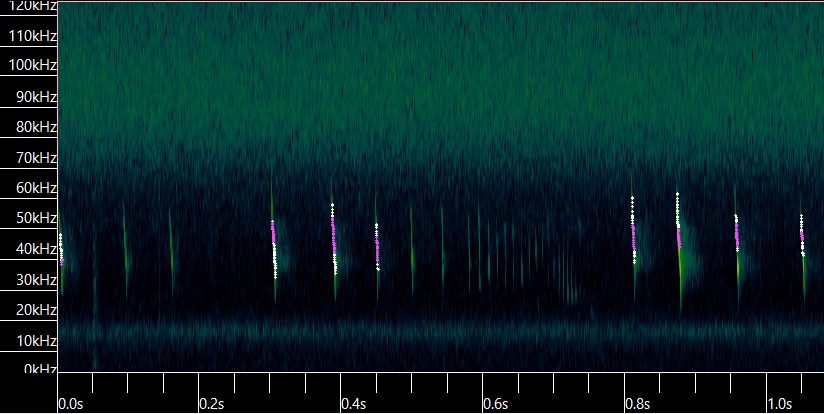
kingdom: Animalia
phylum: Chordata
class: Mammalia
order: Chiroptera
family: Vespertilionidae
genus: Myotis
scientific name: Myotis daubentonii
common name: Vandflagermus
